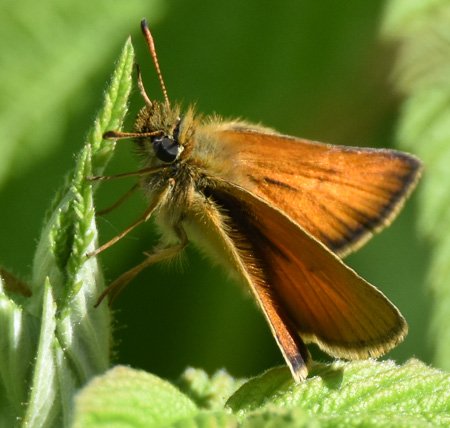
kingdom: Animalia
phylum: Arthropoda
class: Insecta
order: Lepidoptera
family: Hesperiidae
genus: Thymelicus
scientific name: Thymelicus lineola
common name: European Skipper
